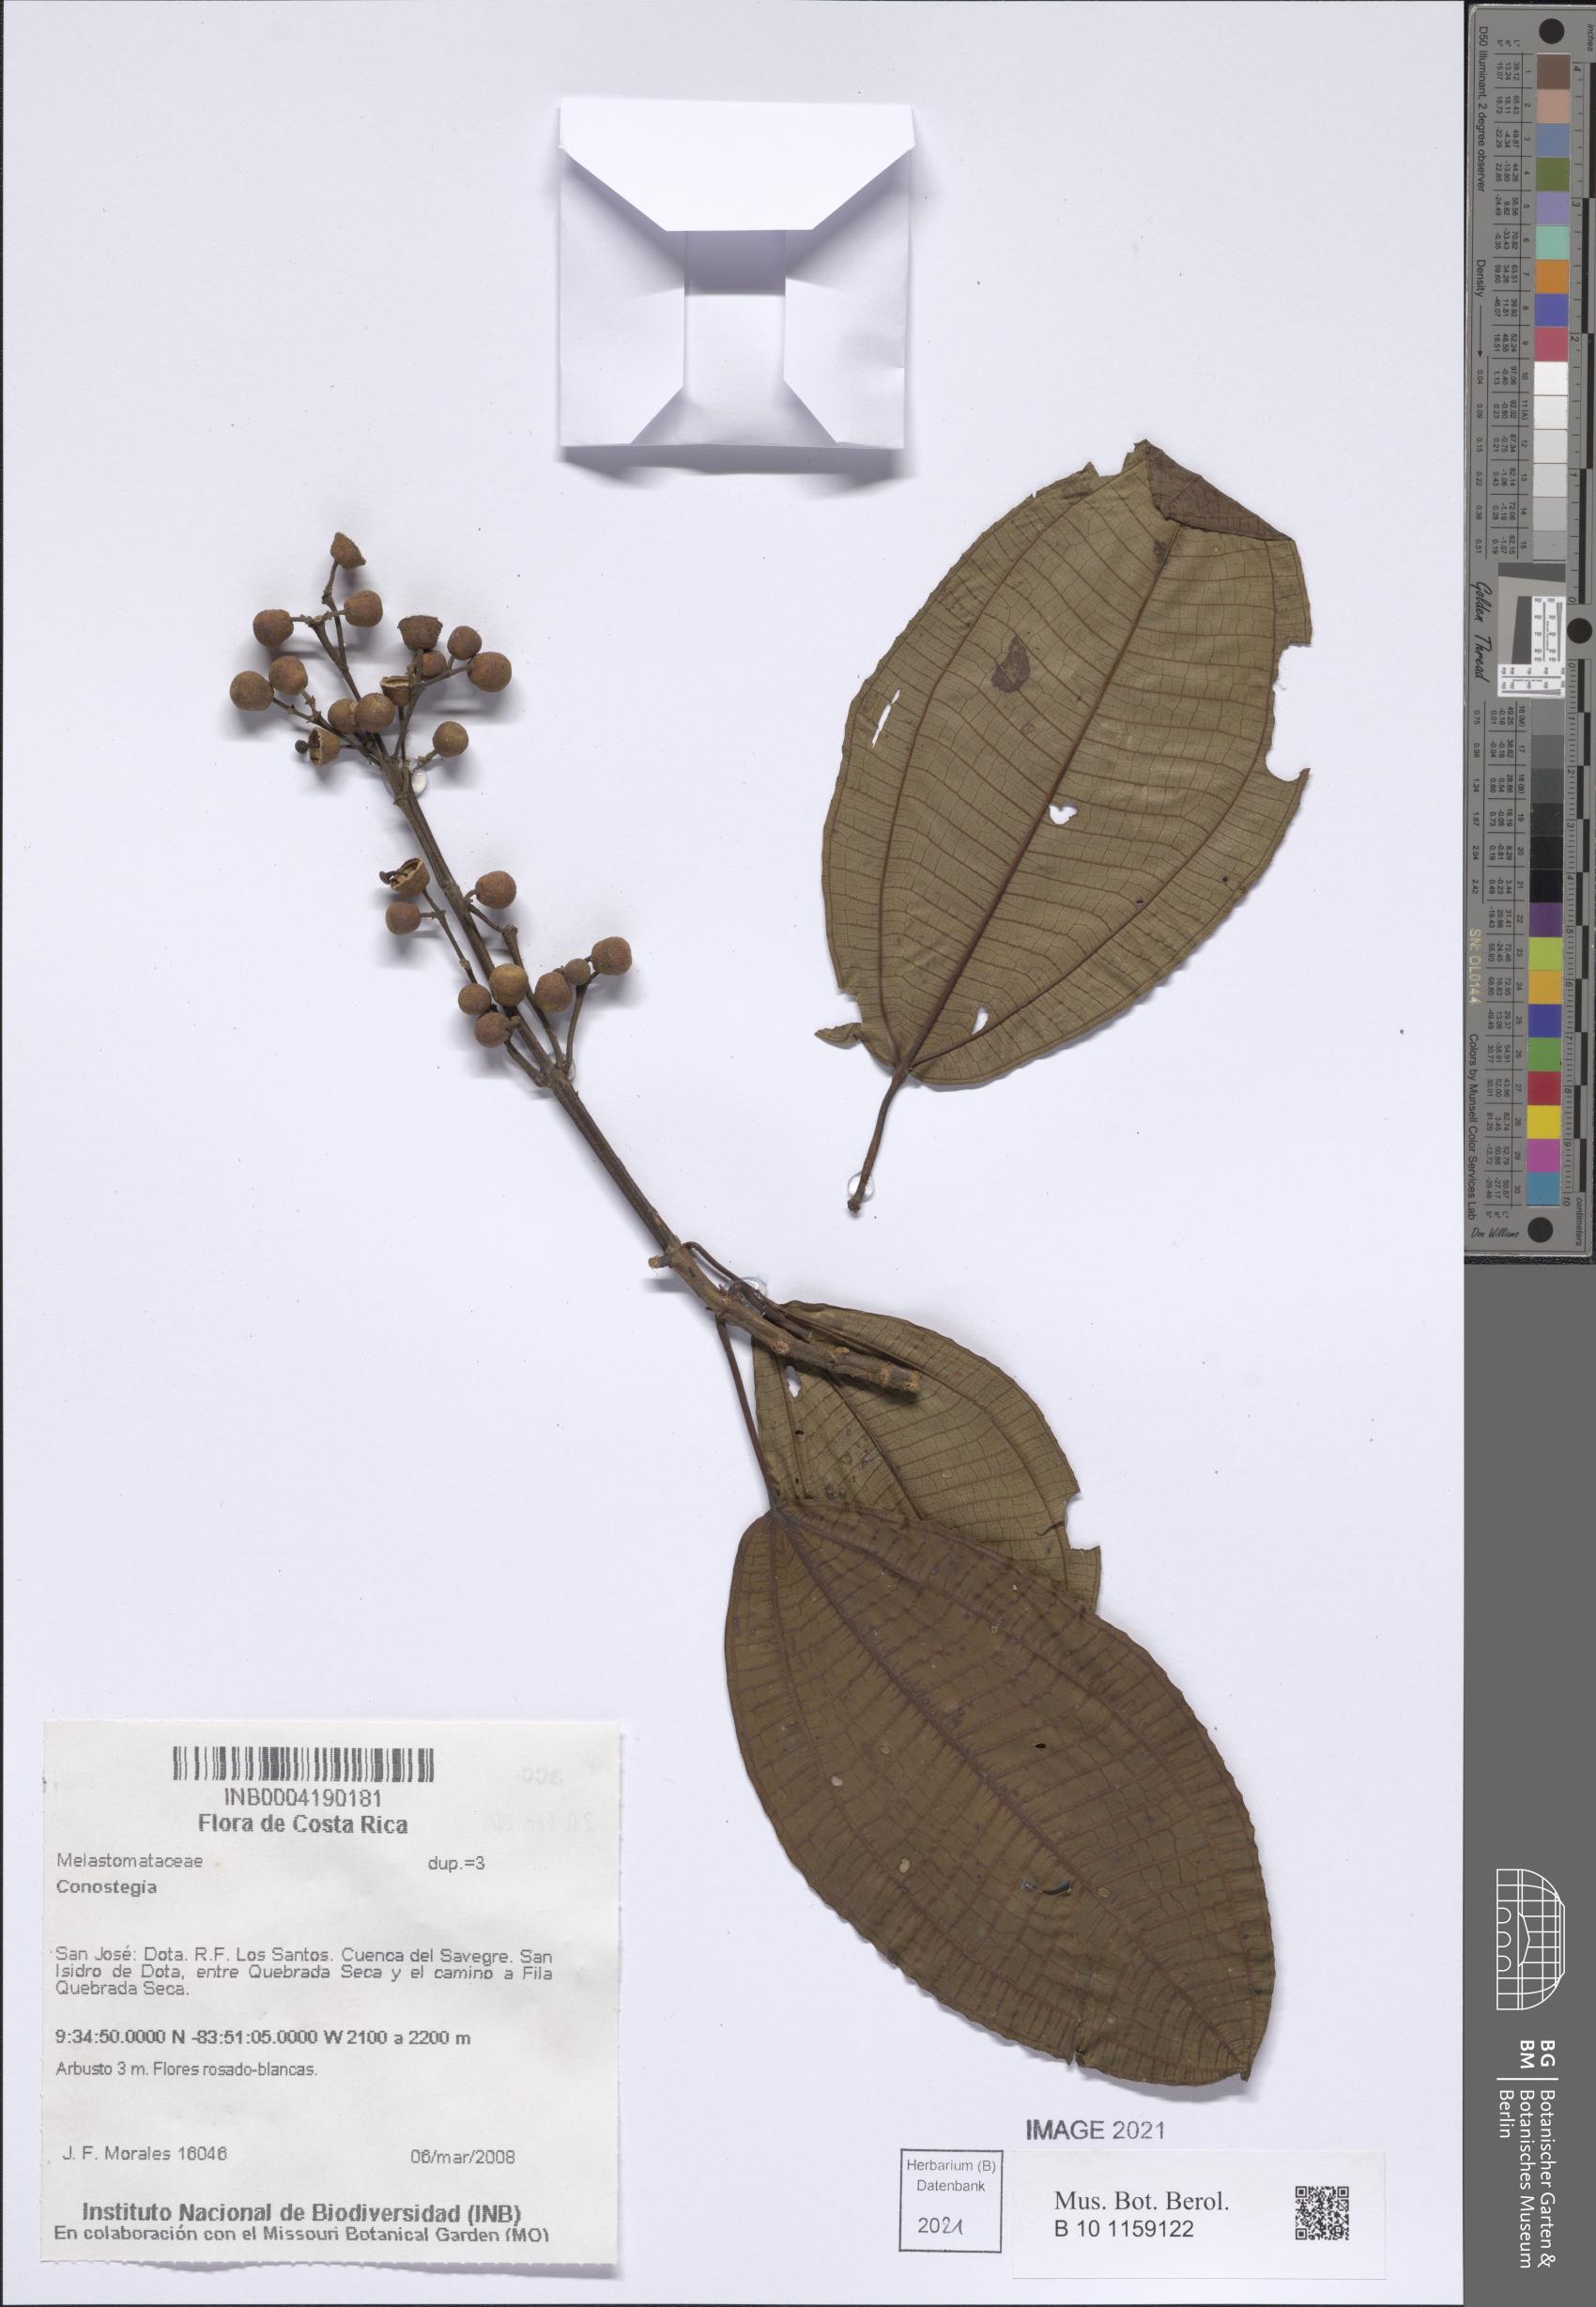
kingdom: Plantae
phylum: Tracheophyta
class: Magnoliopsida
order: Myrtales
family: Melastomataceae
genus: Miconia
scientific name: Miconia
